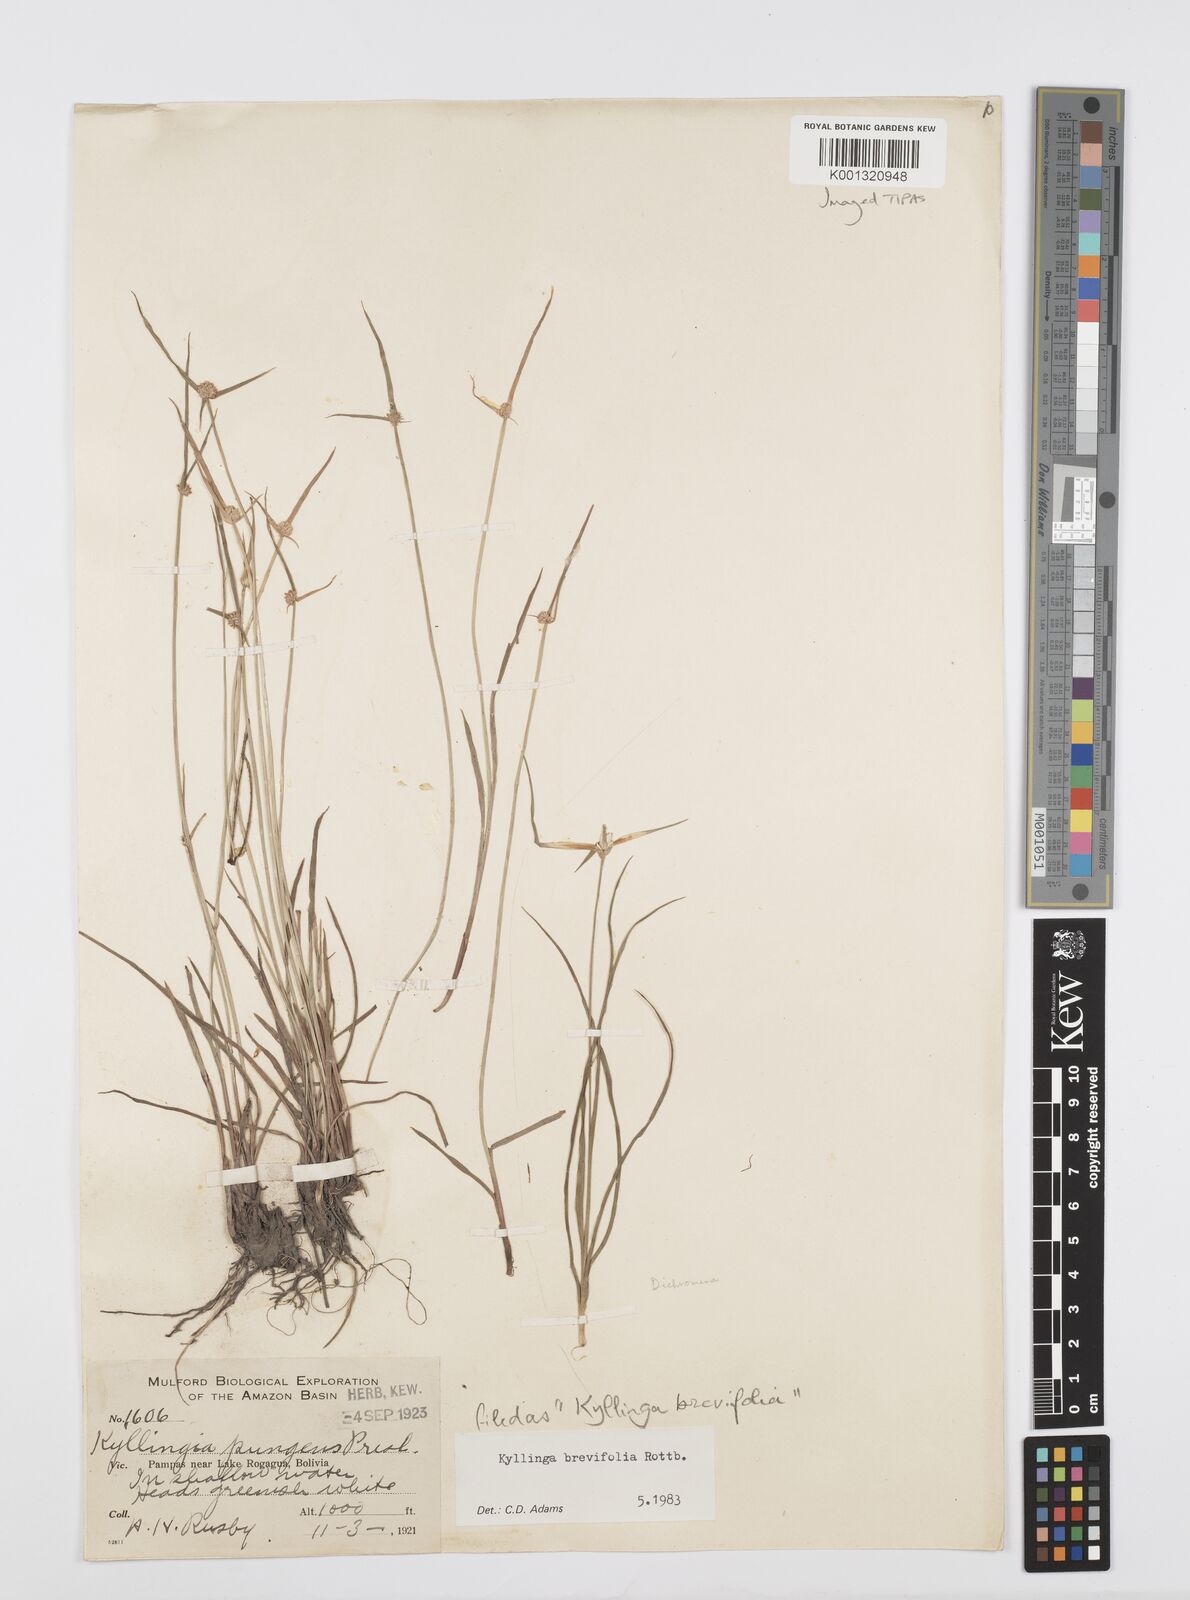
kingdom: Plantae
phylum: Tracheophyta
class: Liliopsida
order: Poales
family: Cyperaceae
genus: Cyperus
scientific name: Cyperus brevifolius
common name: Globe kyllinga
